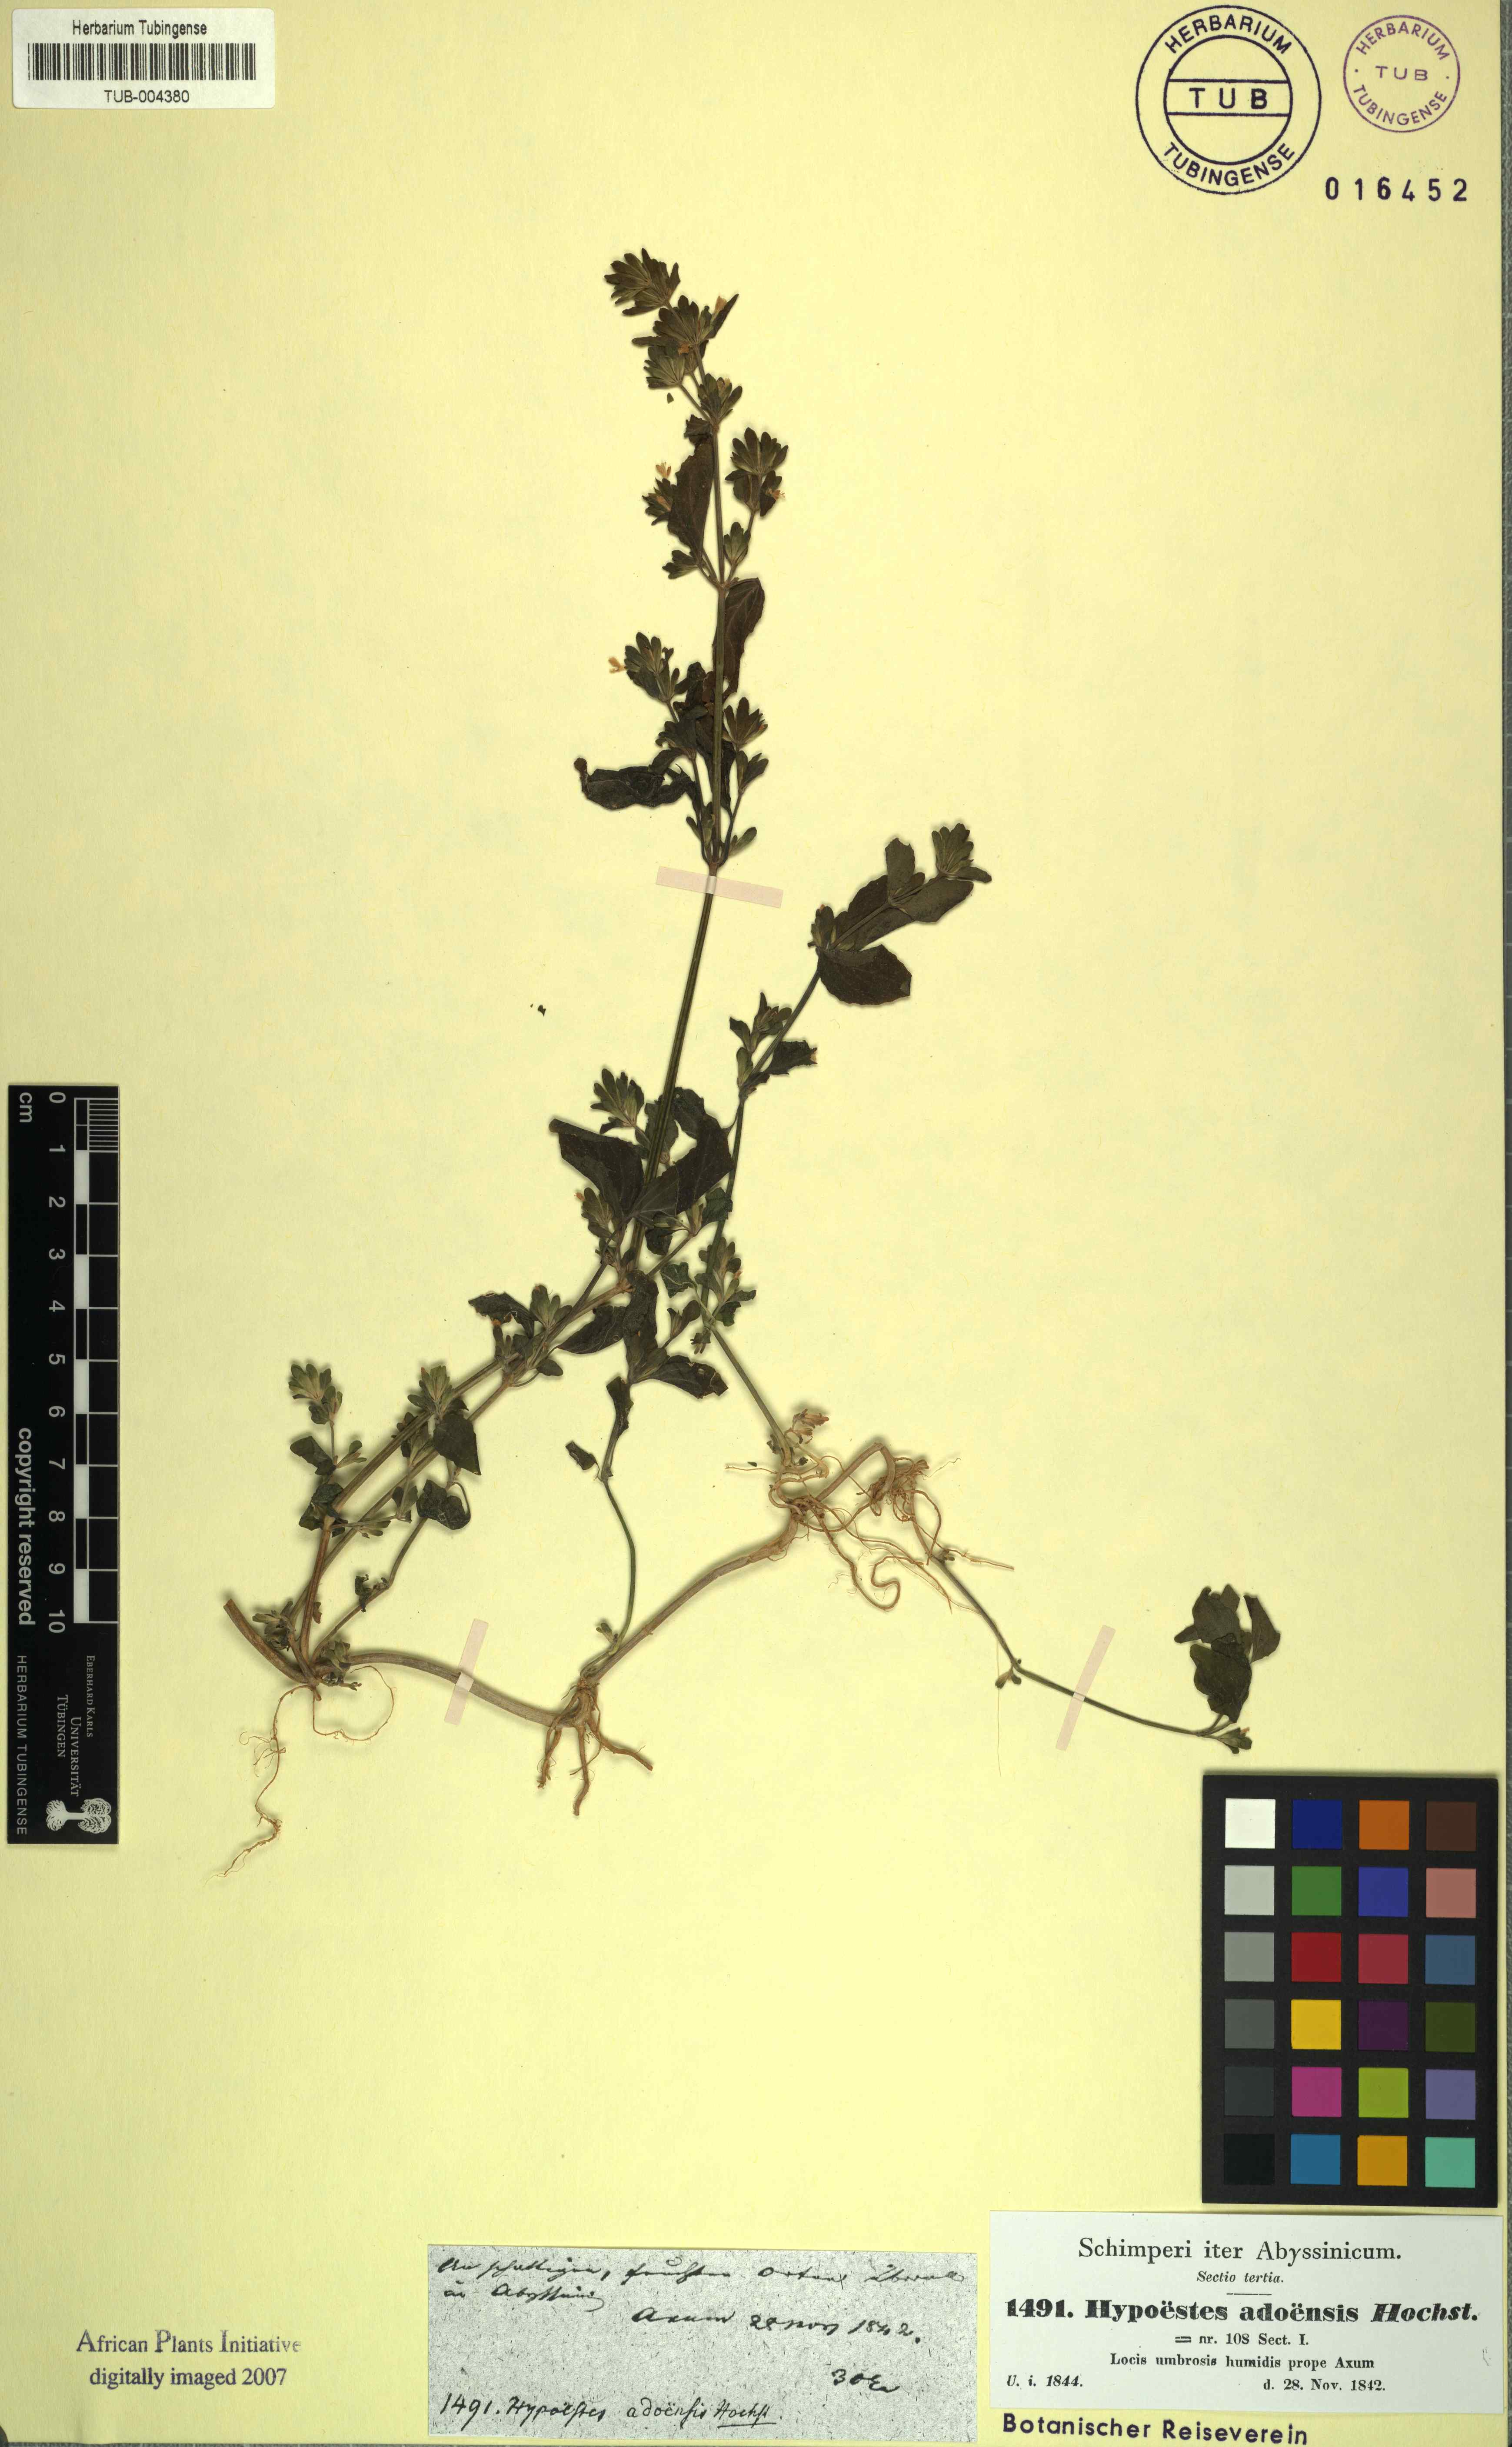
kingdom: Plantae
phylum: Tracheophyta
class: Magnoliopsida
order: Lamiales
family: Acanthaceae
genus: Hypoestes
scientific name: Hypoestes triflora
